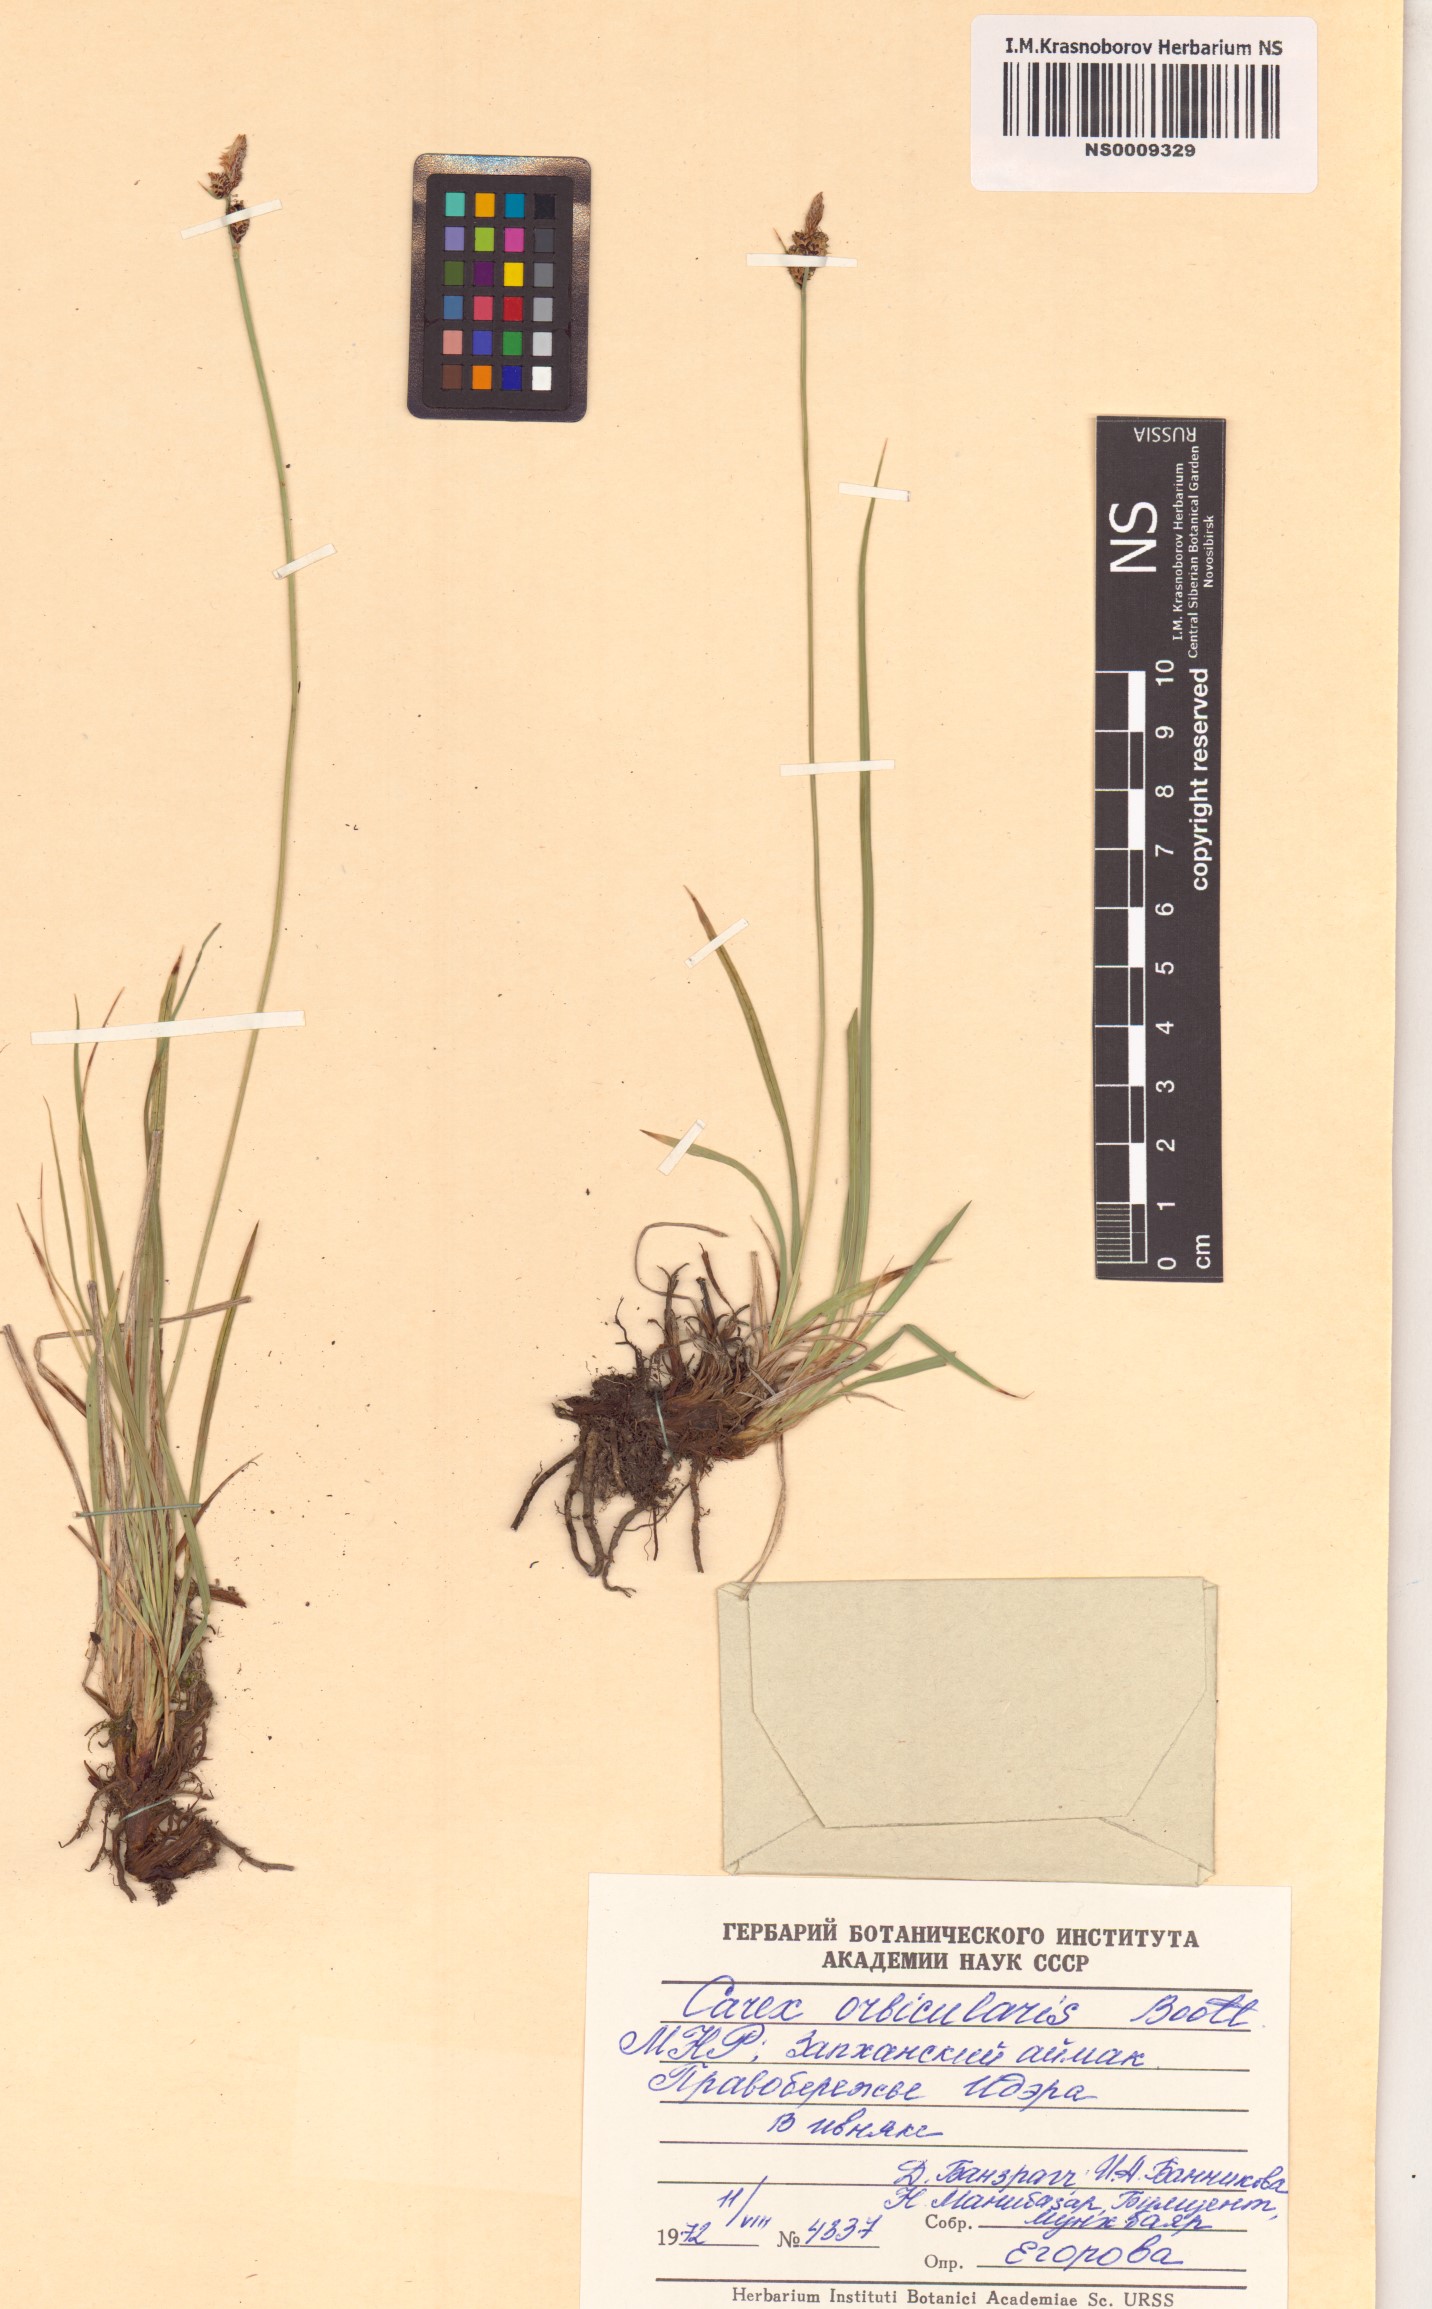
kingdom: Plantae
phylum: Tracheophyta
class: Liliopsida
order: Poales
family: Cyperaceae
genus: Carex
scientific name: Carex orbicularis
